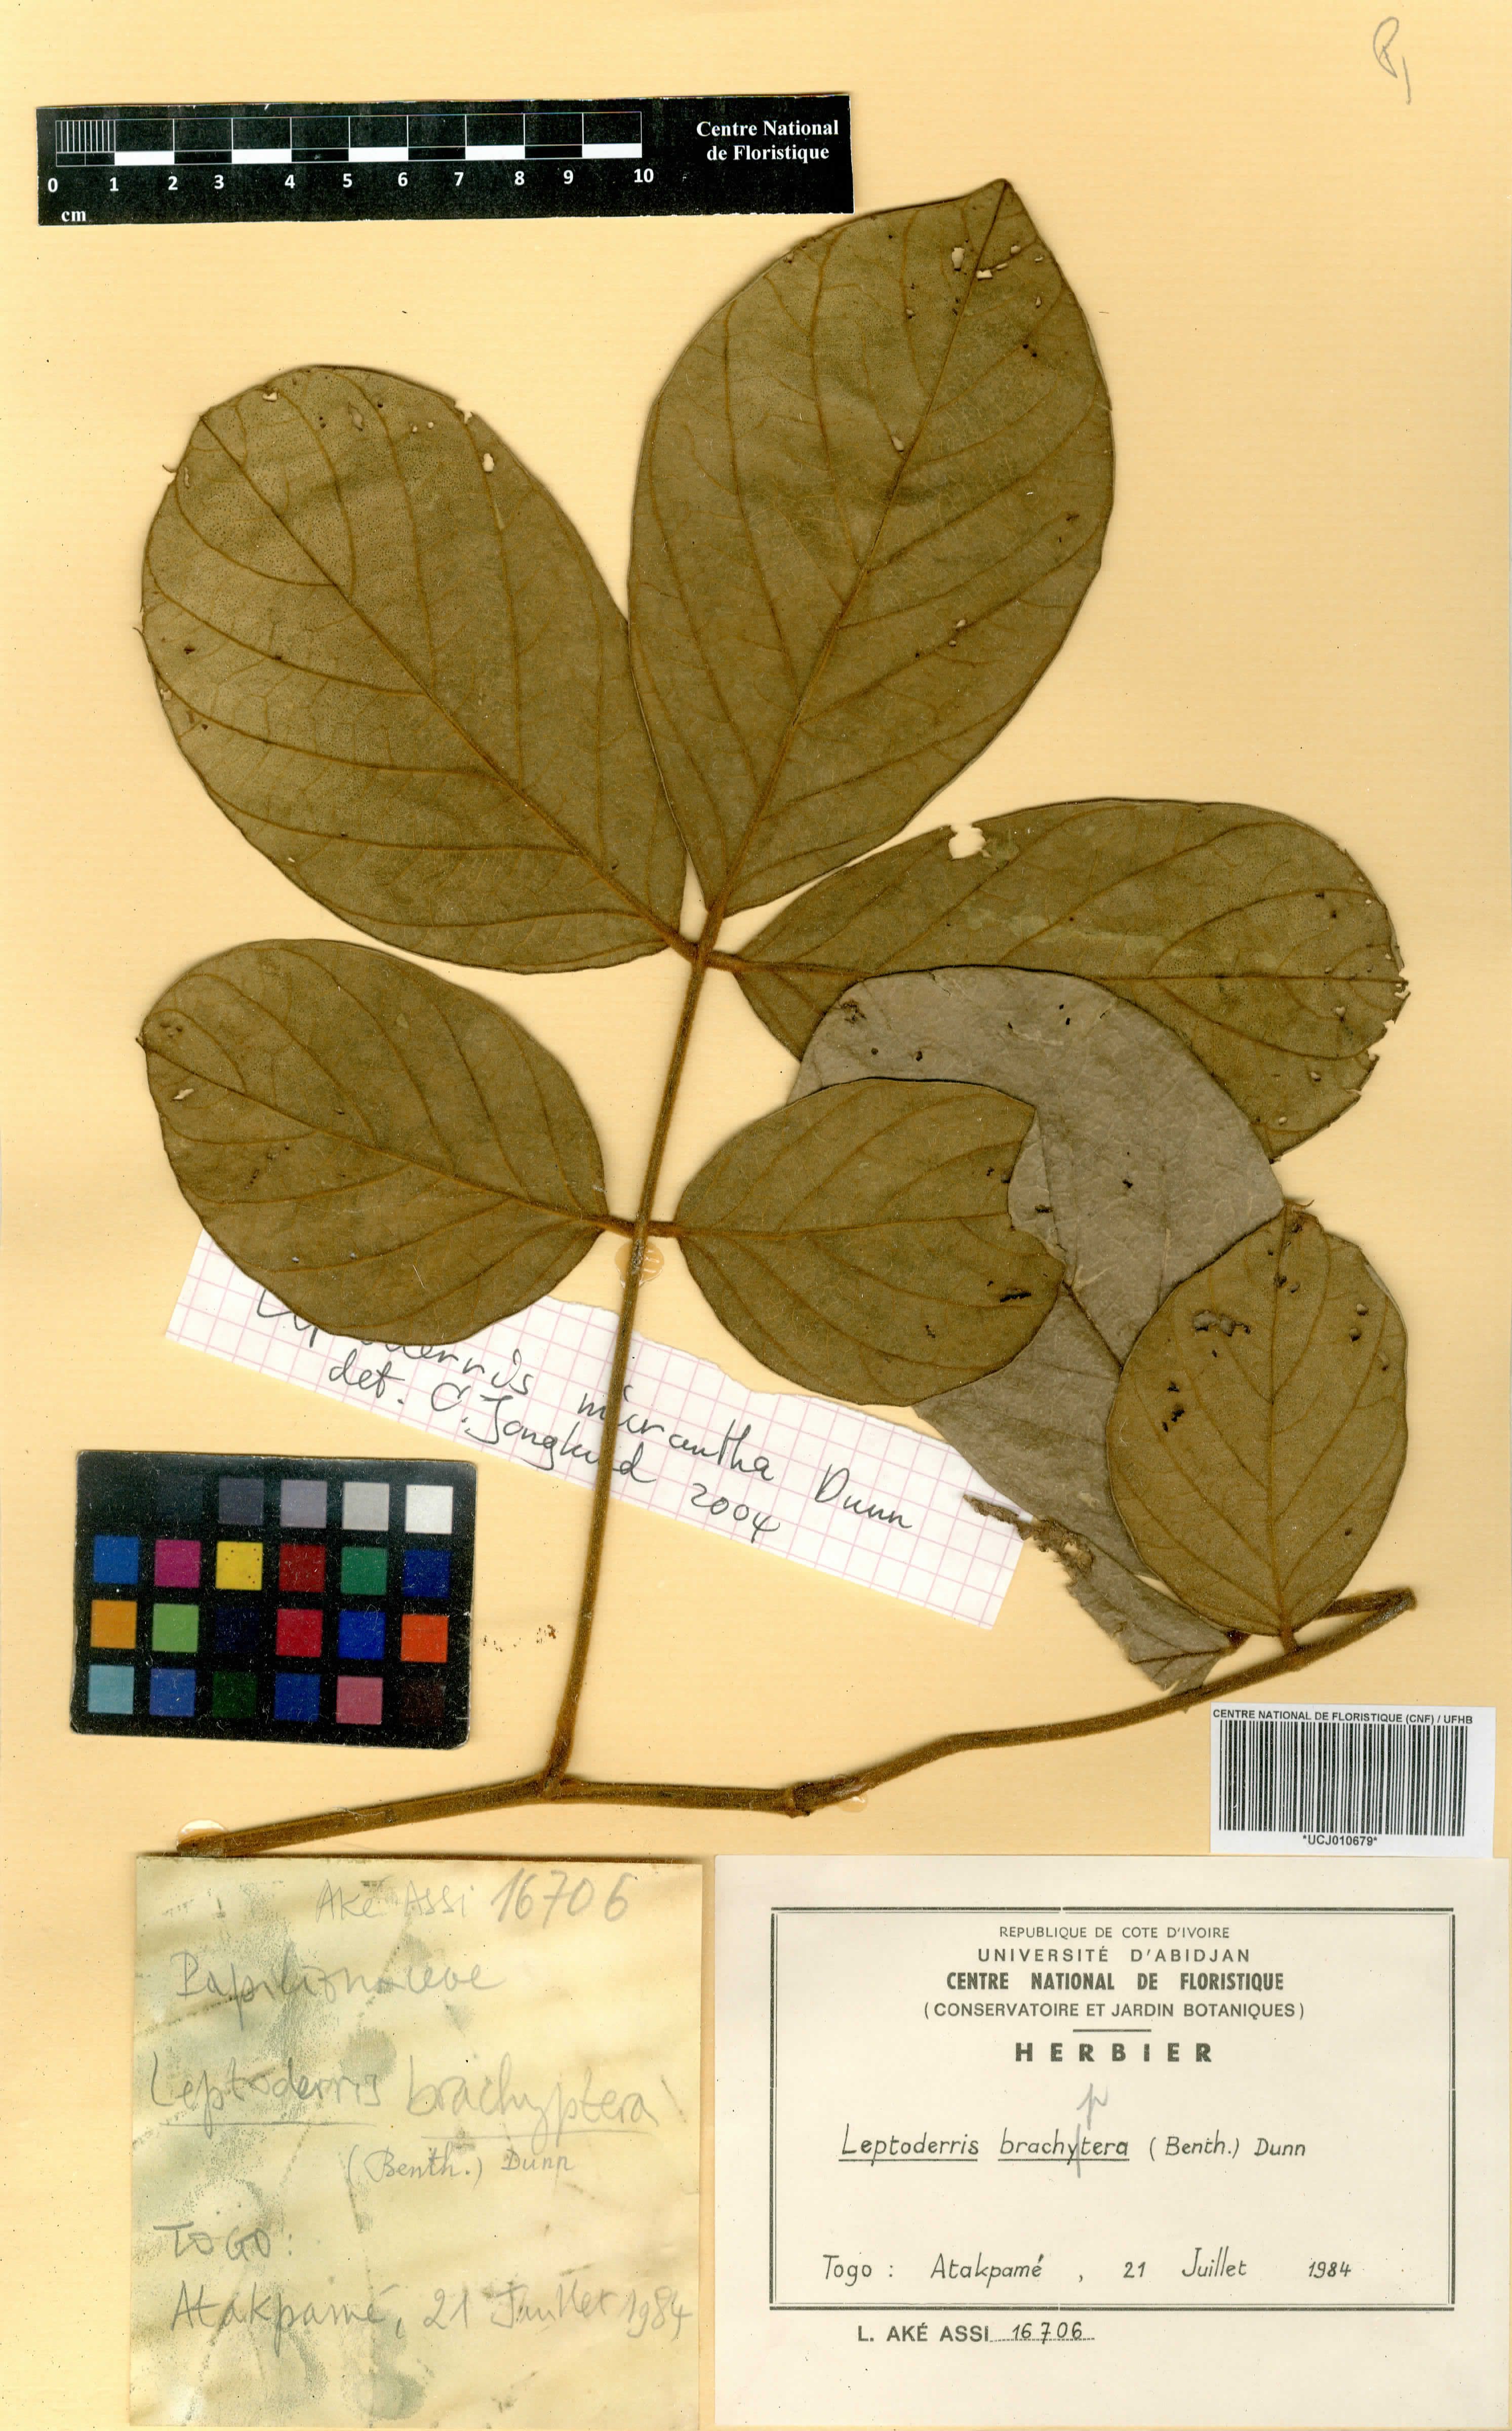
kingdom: Plantae
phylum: Tracheophyta
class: Magnoliopsida
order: Fabales
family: Fabaceae
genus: Leptoderris
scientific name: Leptoderris brachyptera
